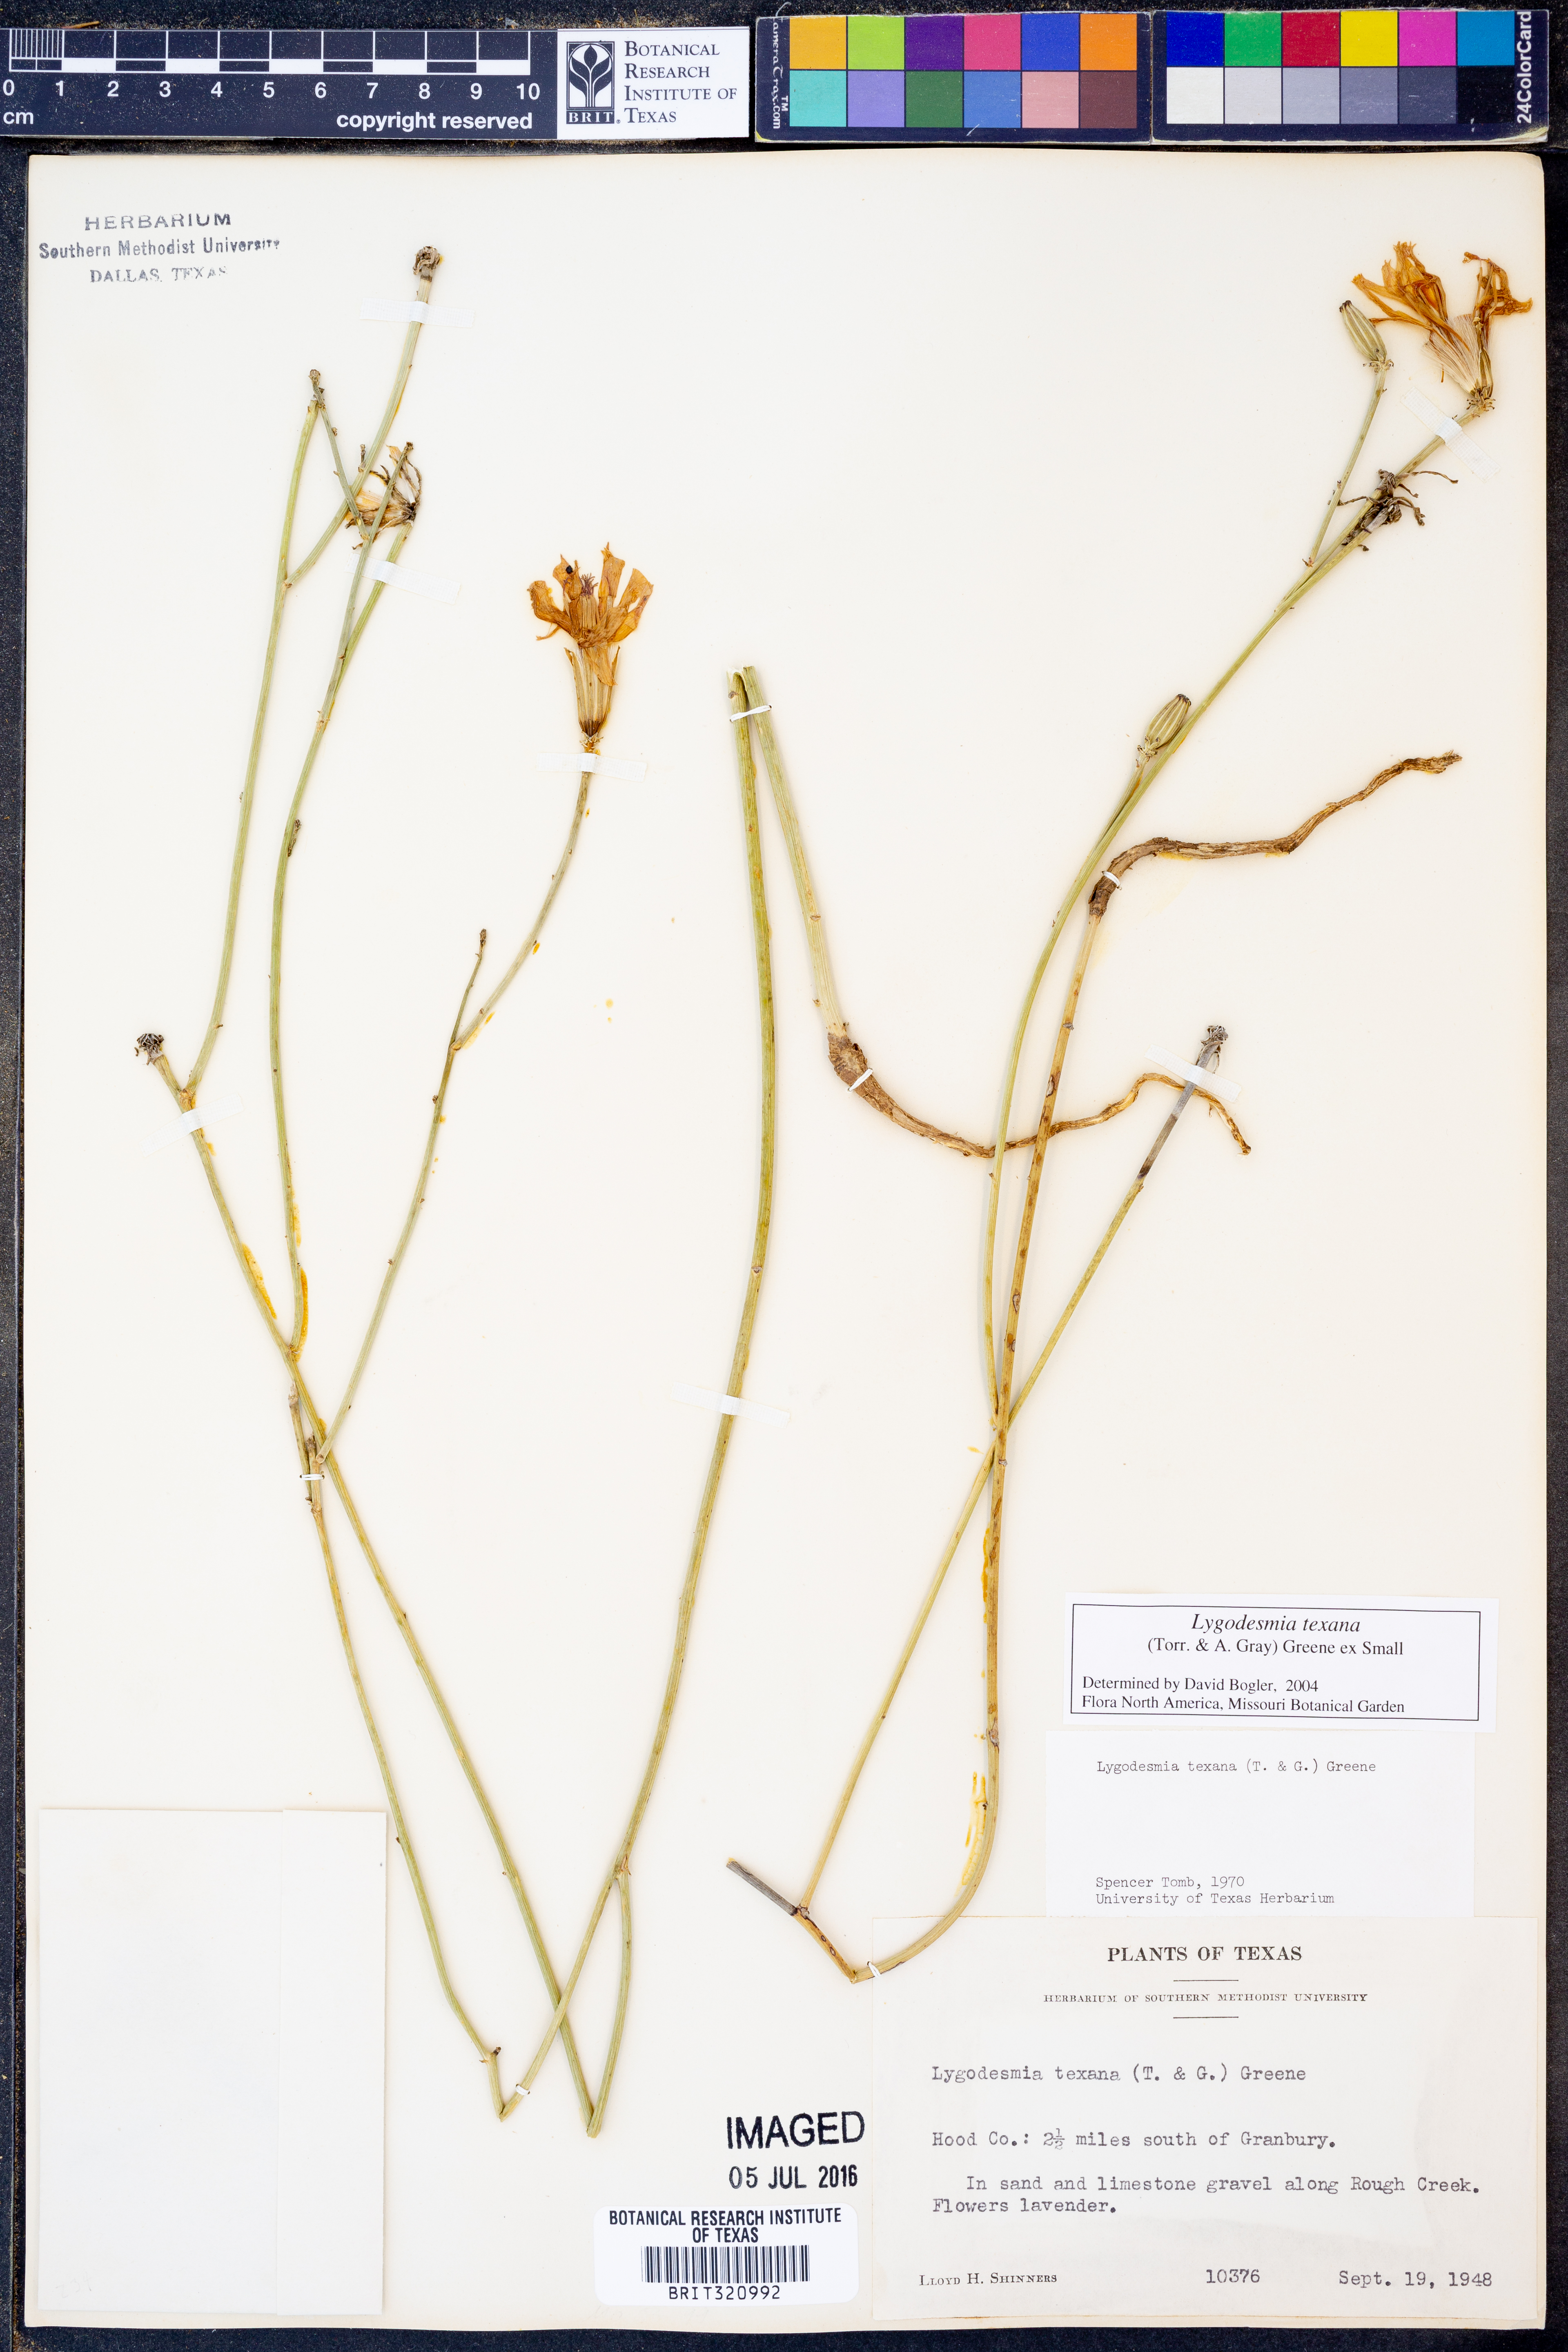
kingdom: Plantae
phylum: Tracheophyta
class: Magnoliopsida
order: Asterales
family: Asteraceae
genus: Lygodesmia
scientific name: Lygodesmia texana
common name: Texas skeleton-plant
